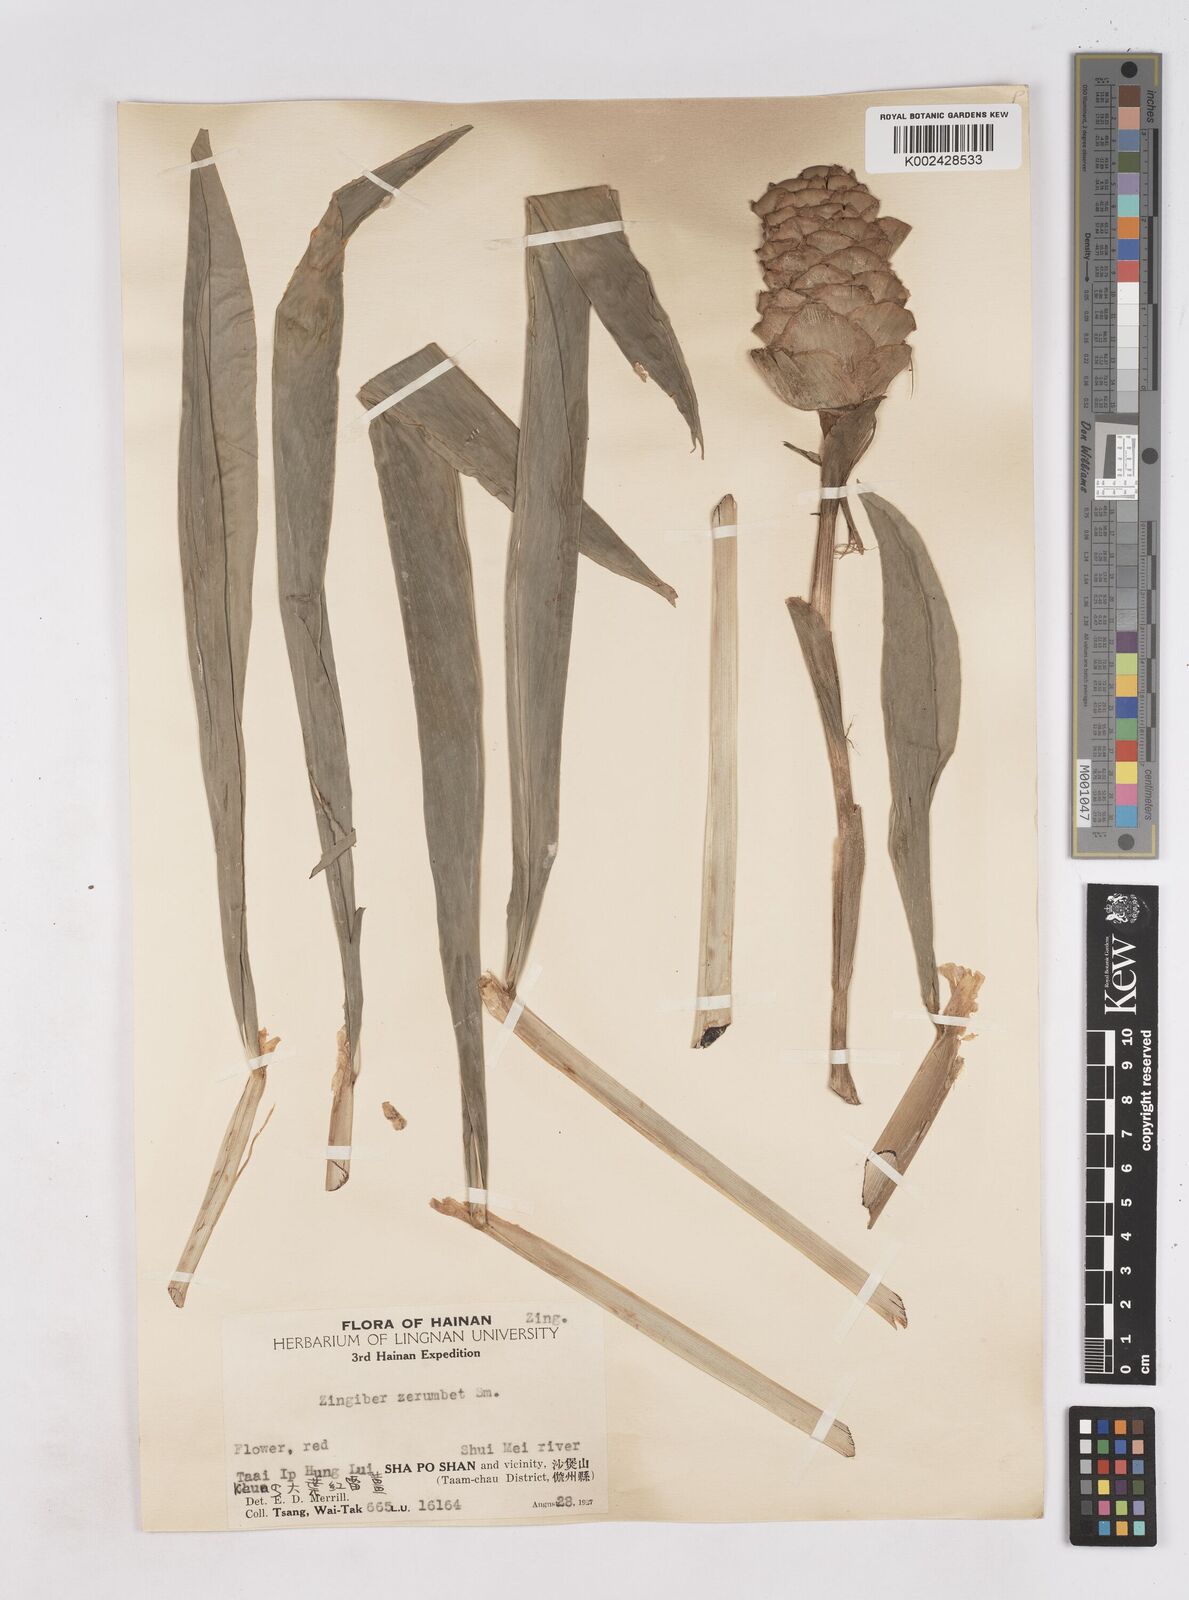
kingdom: Plantae
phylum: Tracheophyta
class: Liliopsida
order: Zingiberales
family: Zingiberaceae
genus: Zingiber
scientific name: Zingiber zerumbet
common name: Bitter ginger
